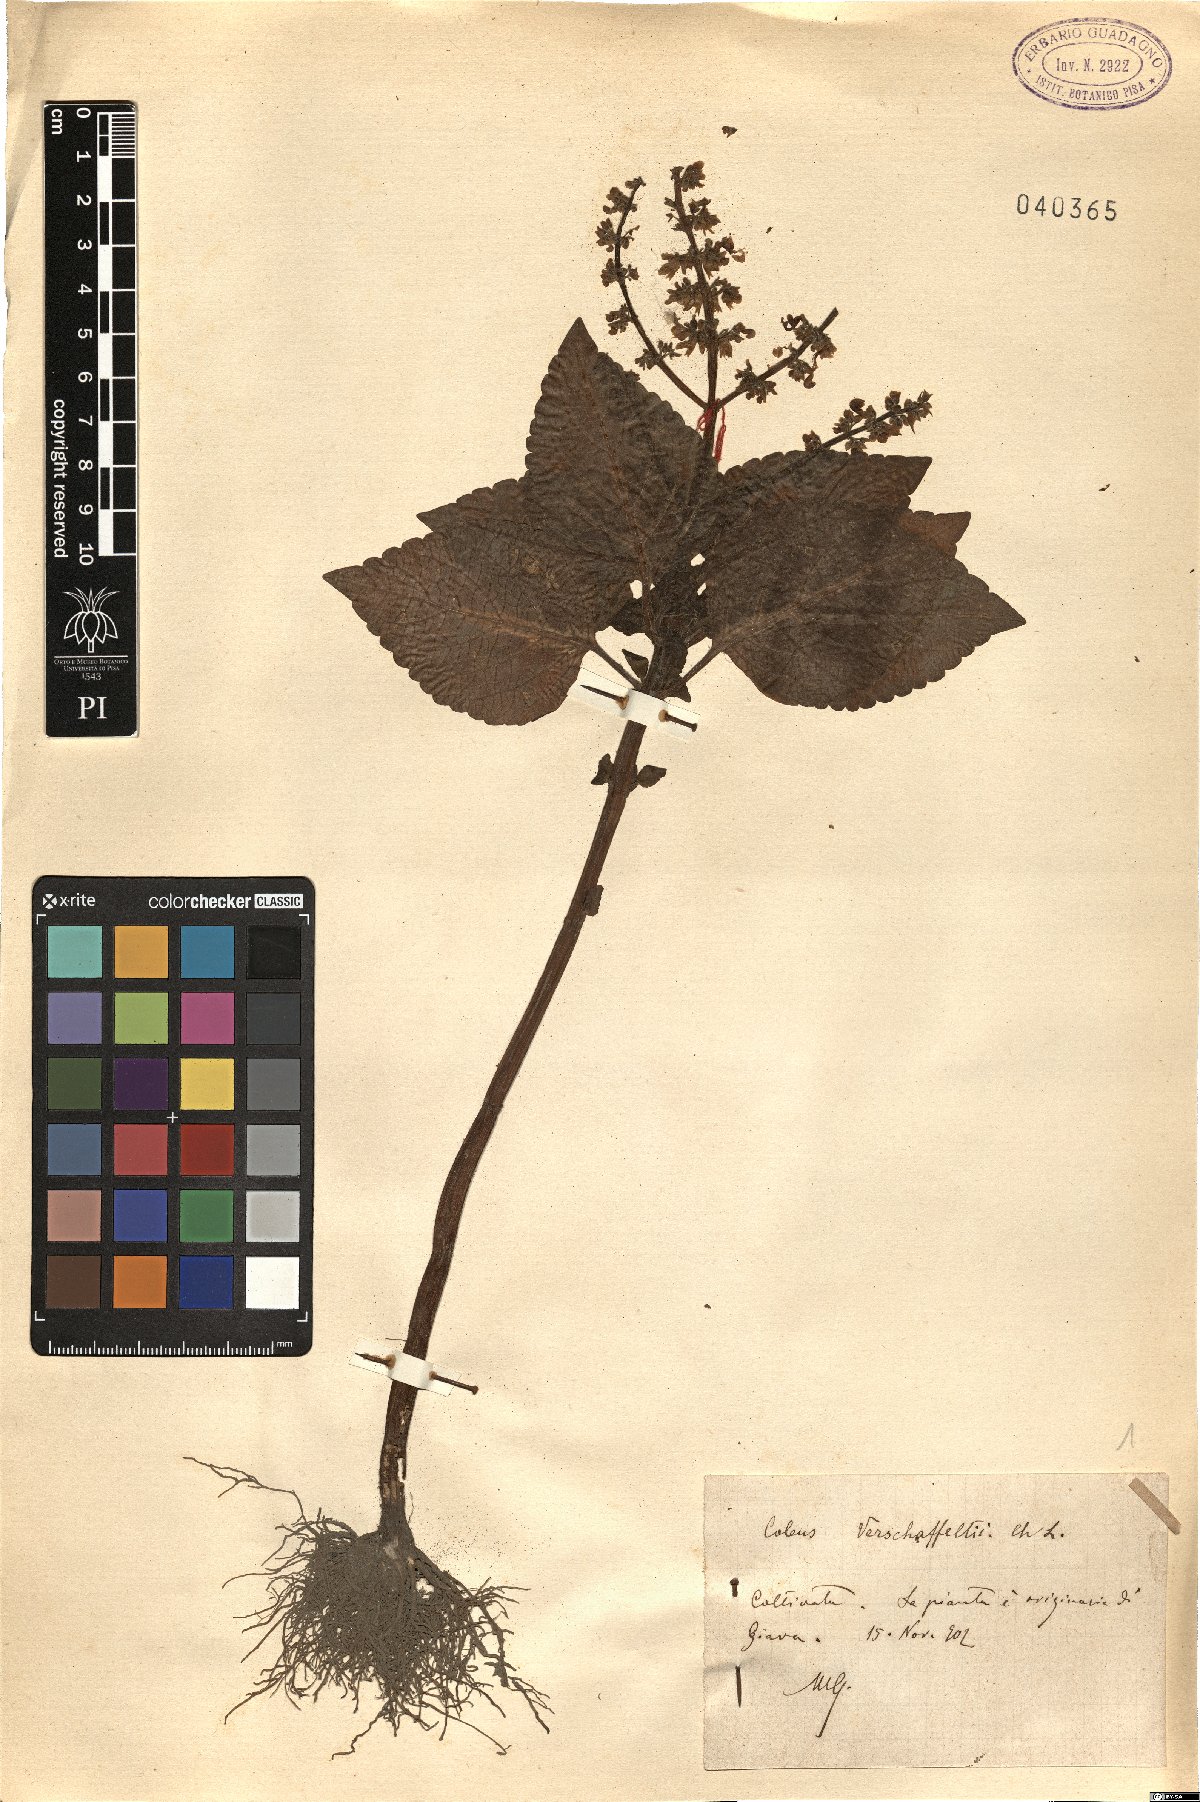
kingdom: Plantae
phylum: Tracheophyta
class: Magnoliopsida
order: Lamiales
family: Lamiaceae
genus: Coleus
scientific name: Coleus scutellarioides
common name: Coleus
